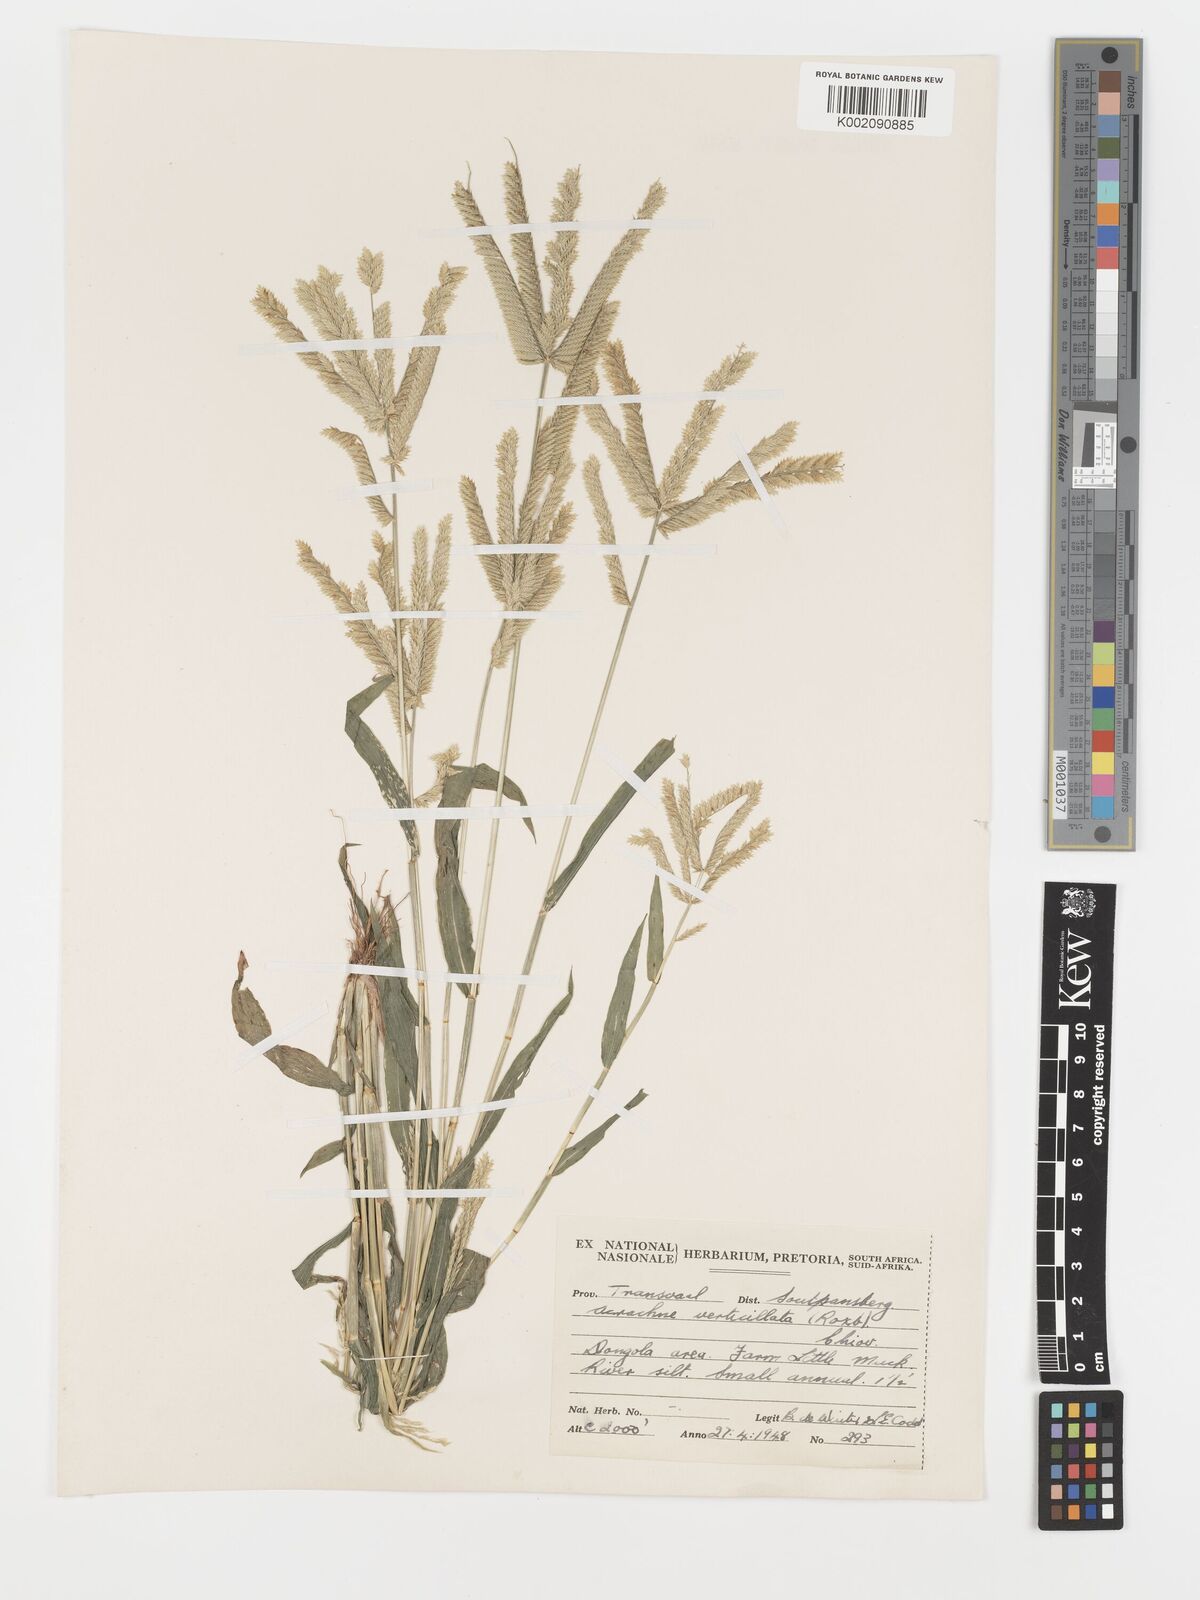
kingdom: Plantae
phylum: Tracheophyta
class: Liliopsida
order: Poales
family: Poaceae
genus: Acrachne
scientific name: Acrachne racemosa
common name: Goosegrass
